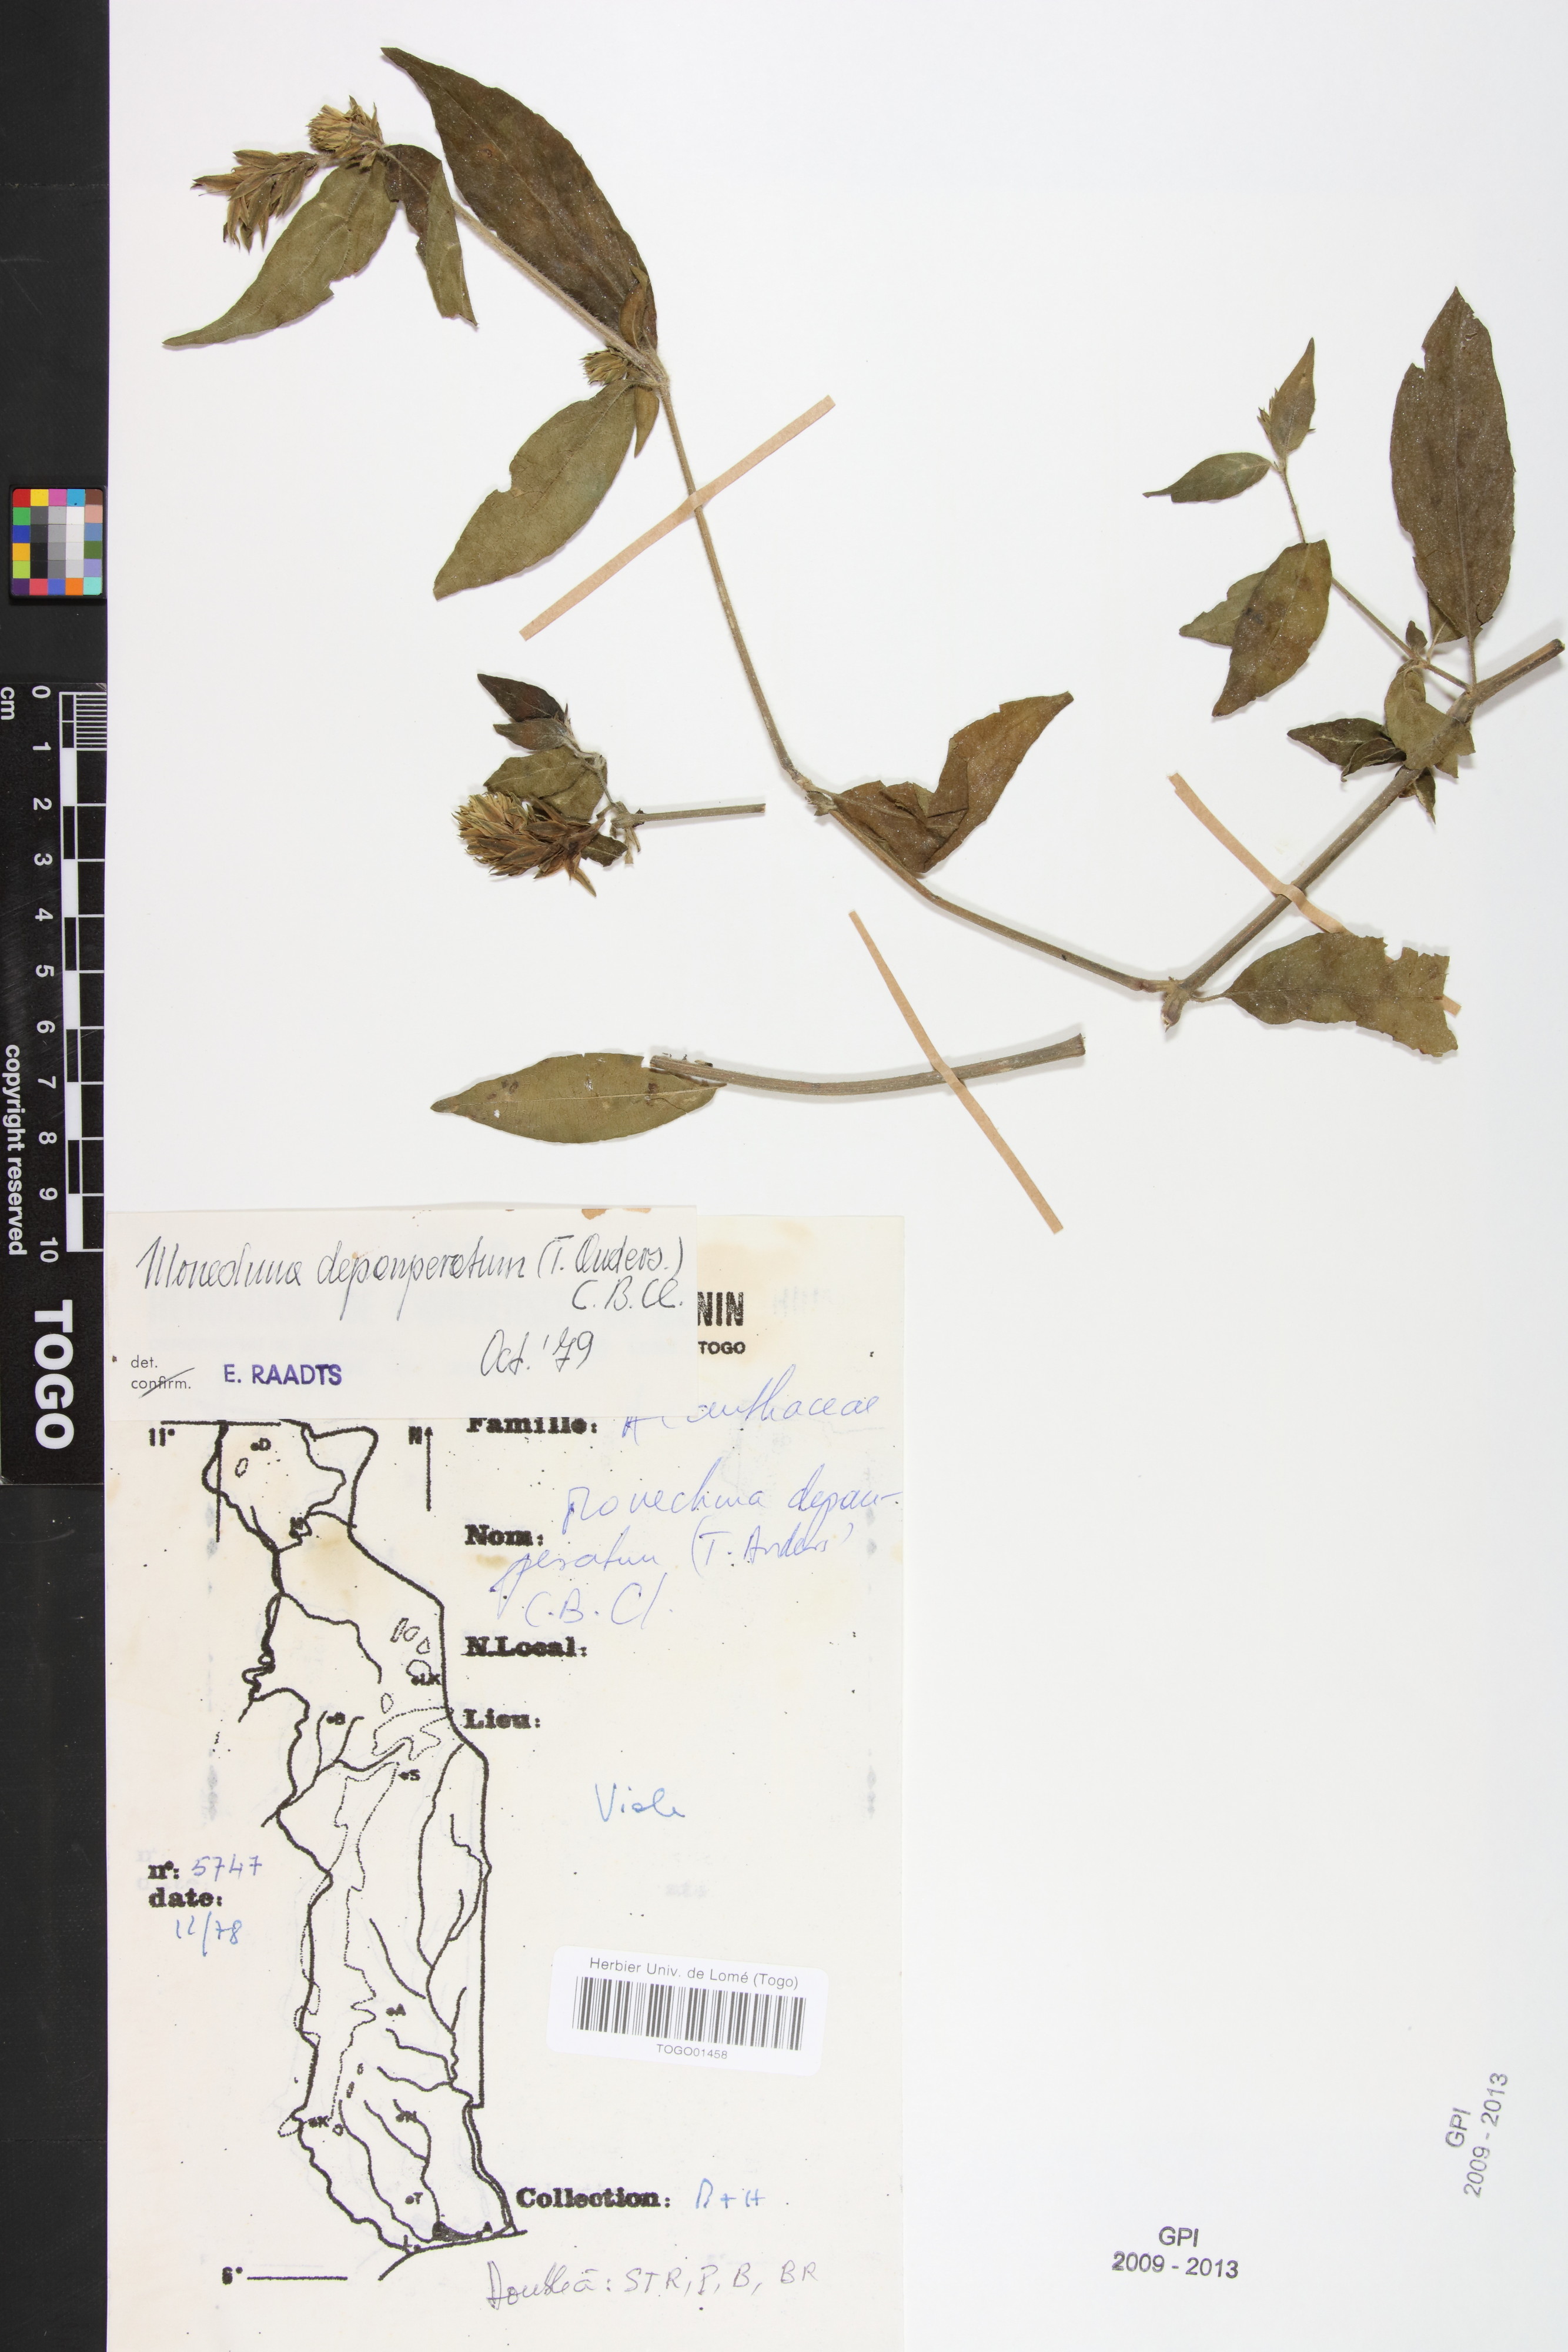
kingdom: Plantae
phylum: Tracheophyta
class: Magnoliopsida
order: Lamiales
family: Acanthaceae
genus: Monechma
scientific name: Monechma depauperatum
